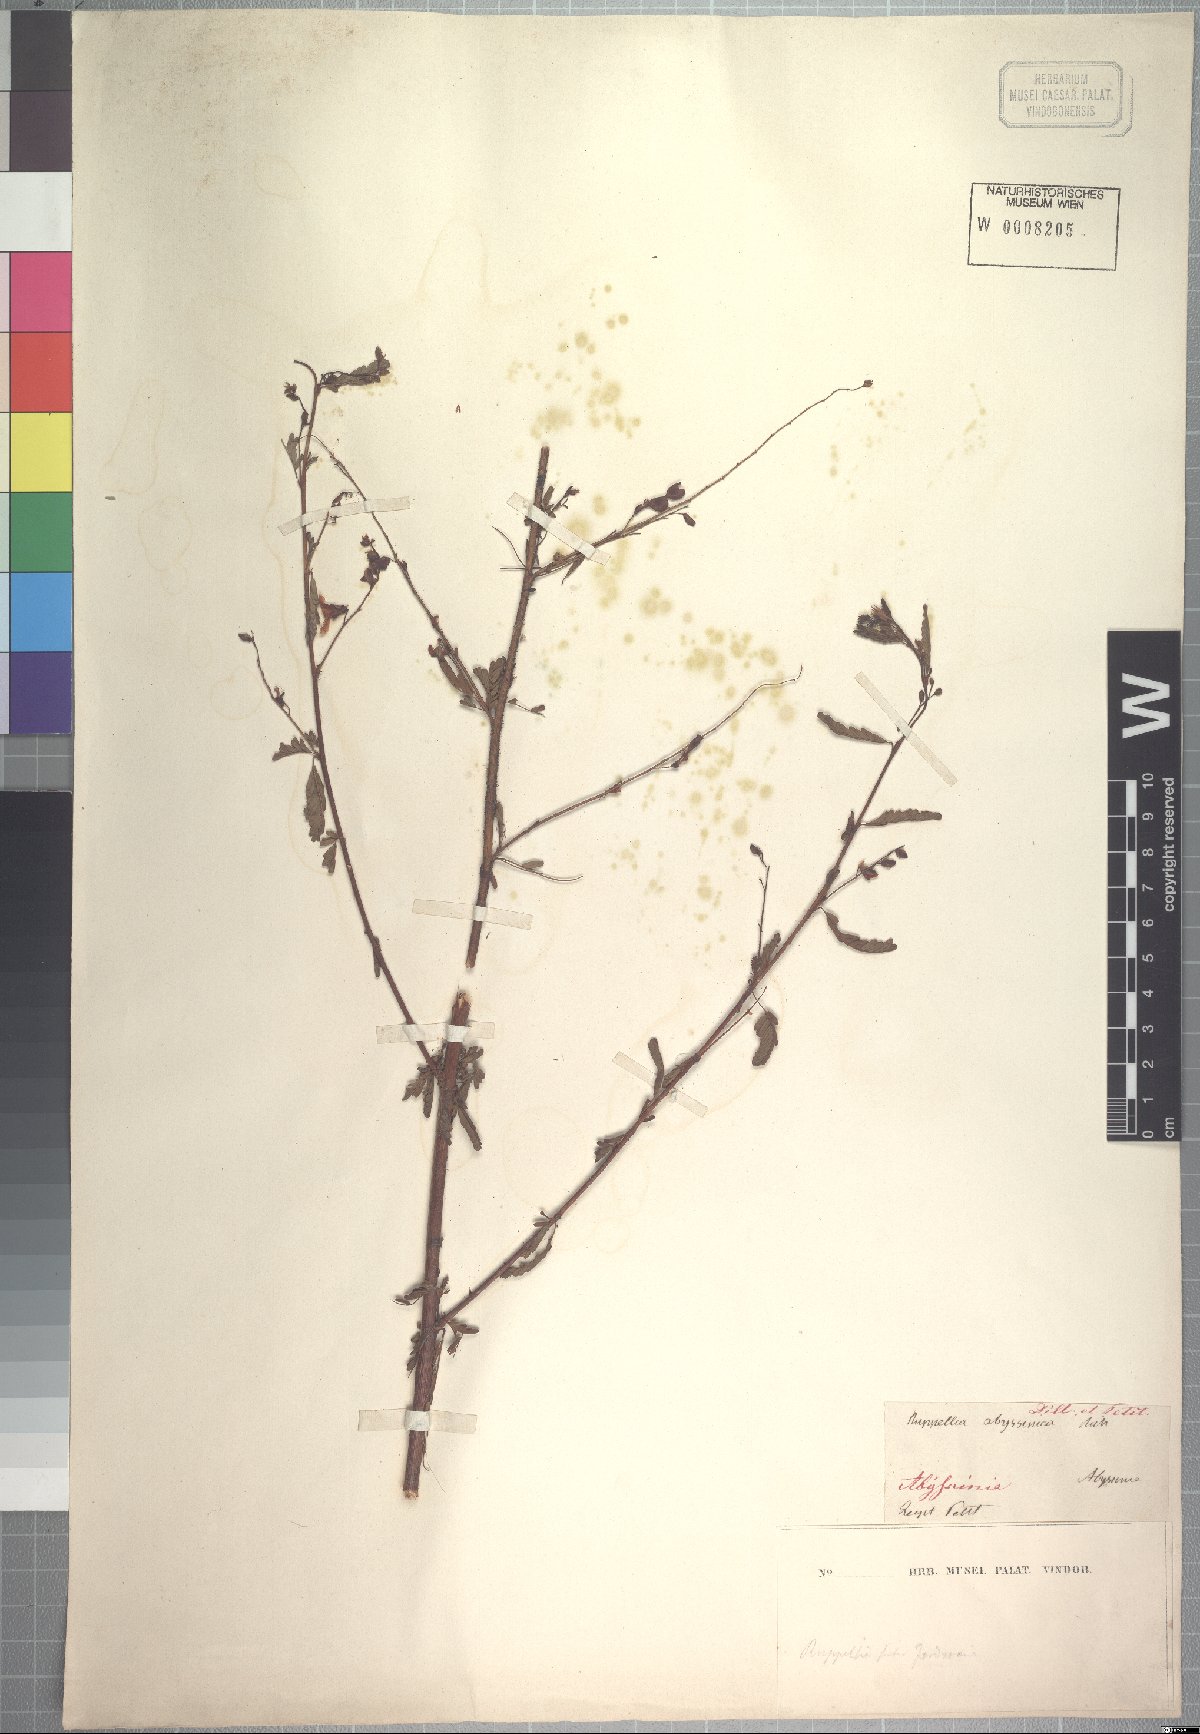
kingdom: Plantae
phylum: Tracheophyta
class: Magnoliopsida
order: Fabales
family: Fabaceae
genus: Aeschynomene
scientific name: Aeschynomene abyssinica
